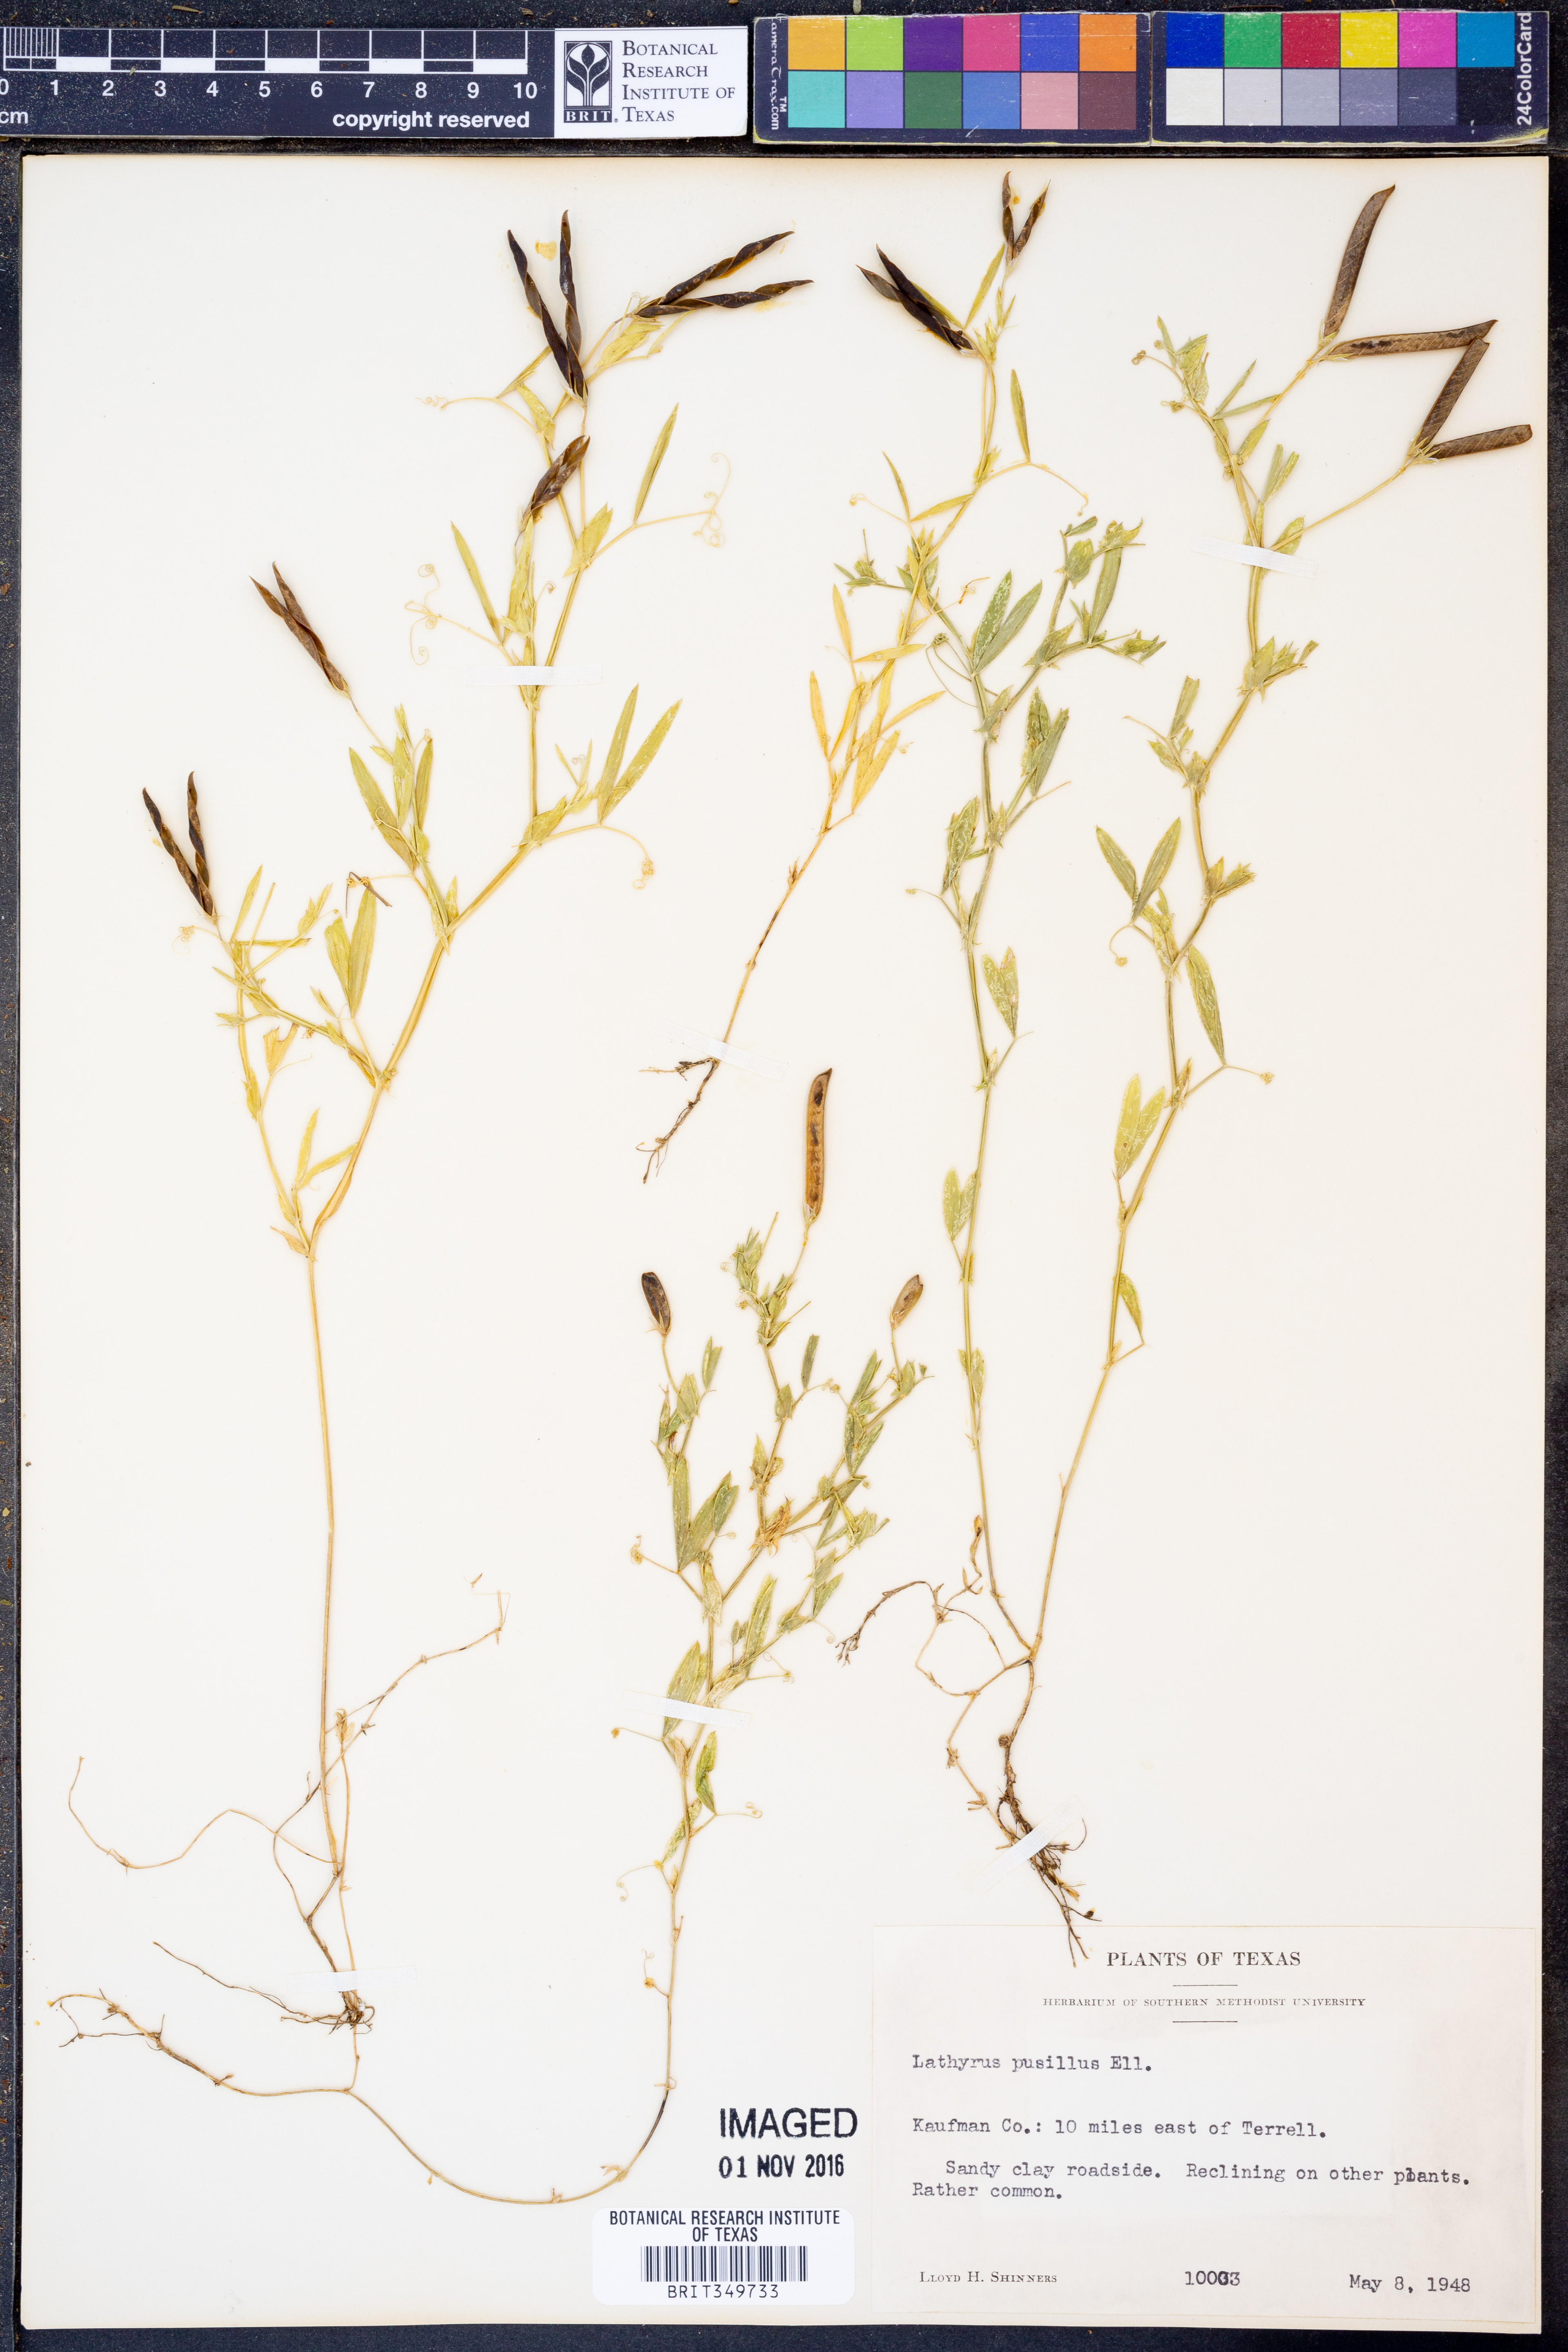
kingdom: Plantae
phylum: Tracheophyta
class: Magnoliopsida
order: Fabales
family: Fabaceae
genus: Lathyrus
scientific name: Lathyrus pusillus
